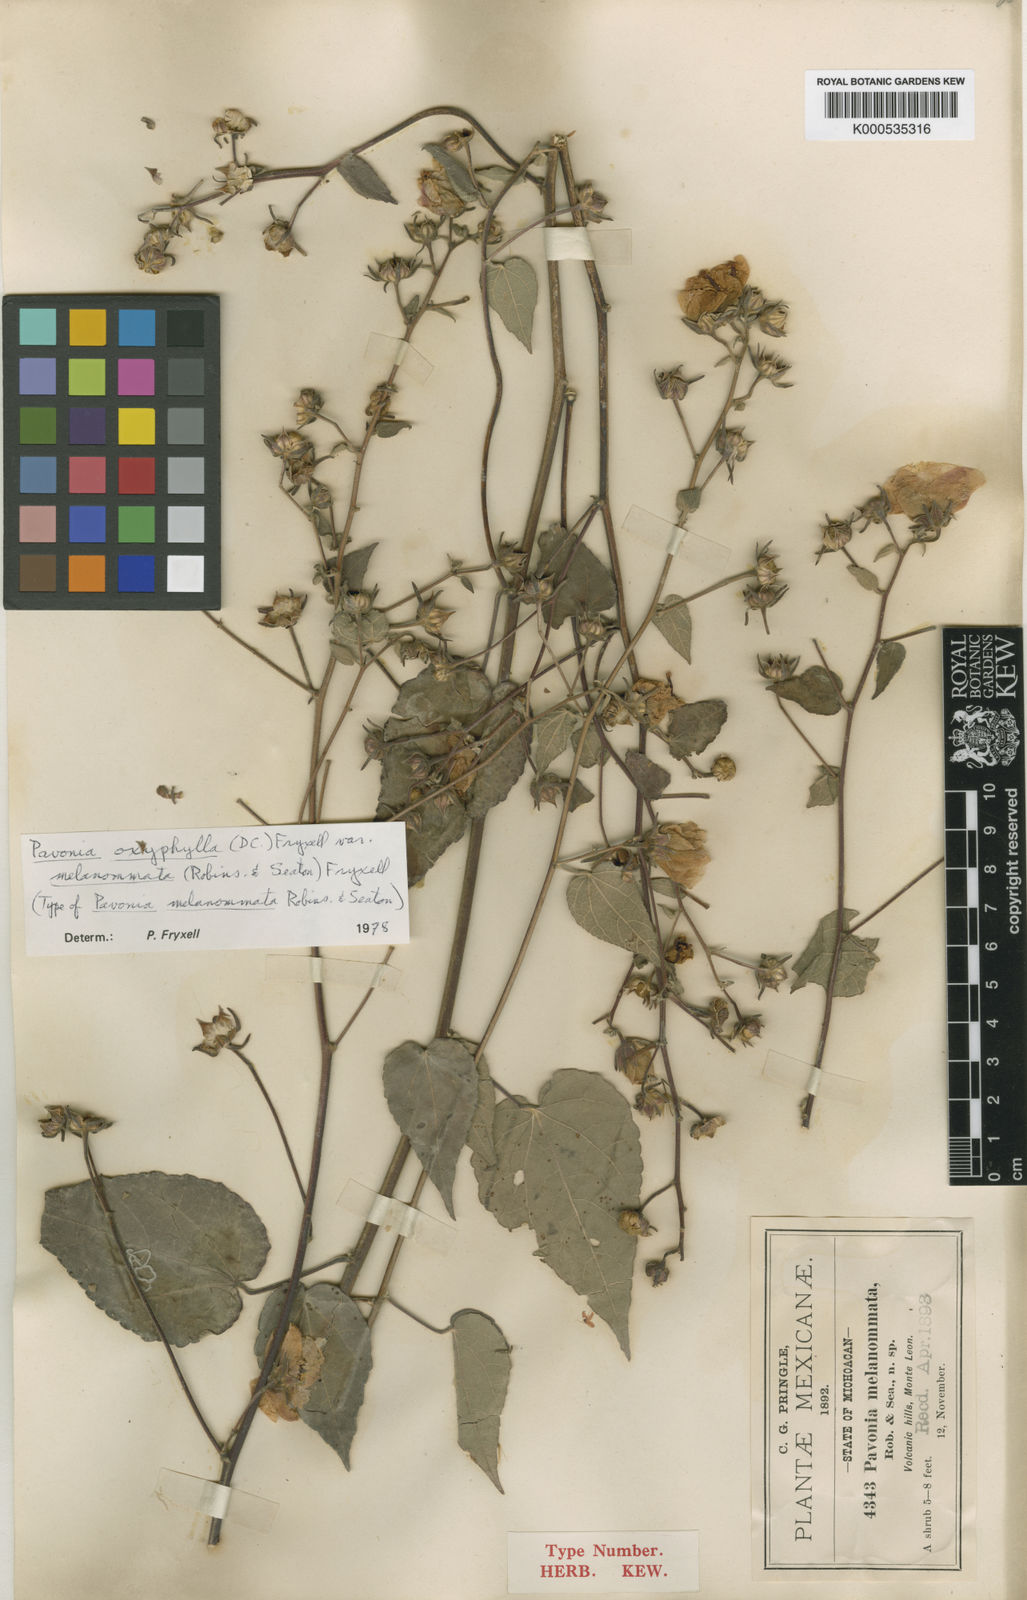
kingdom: Plantae
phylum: Tracheophyta
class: Magnoliopsida
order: Malvales
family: Malvaceae
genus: Pavonia
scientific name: Pavonia oxyphylla
